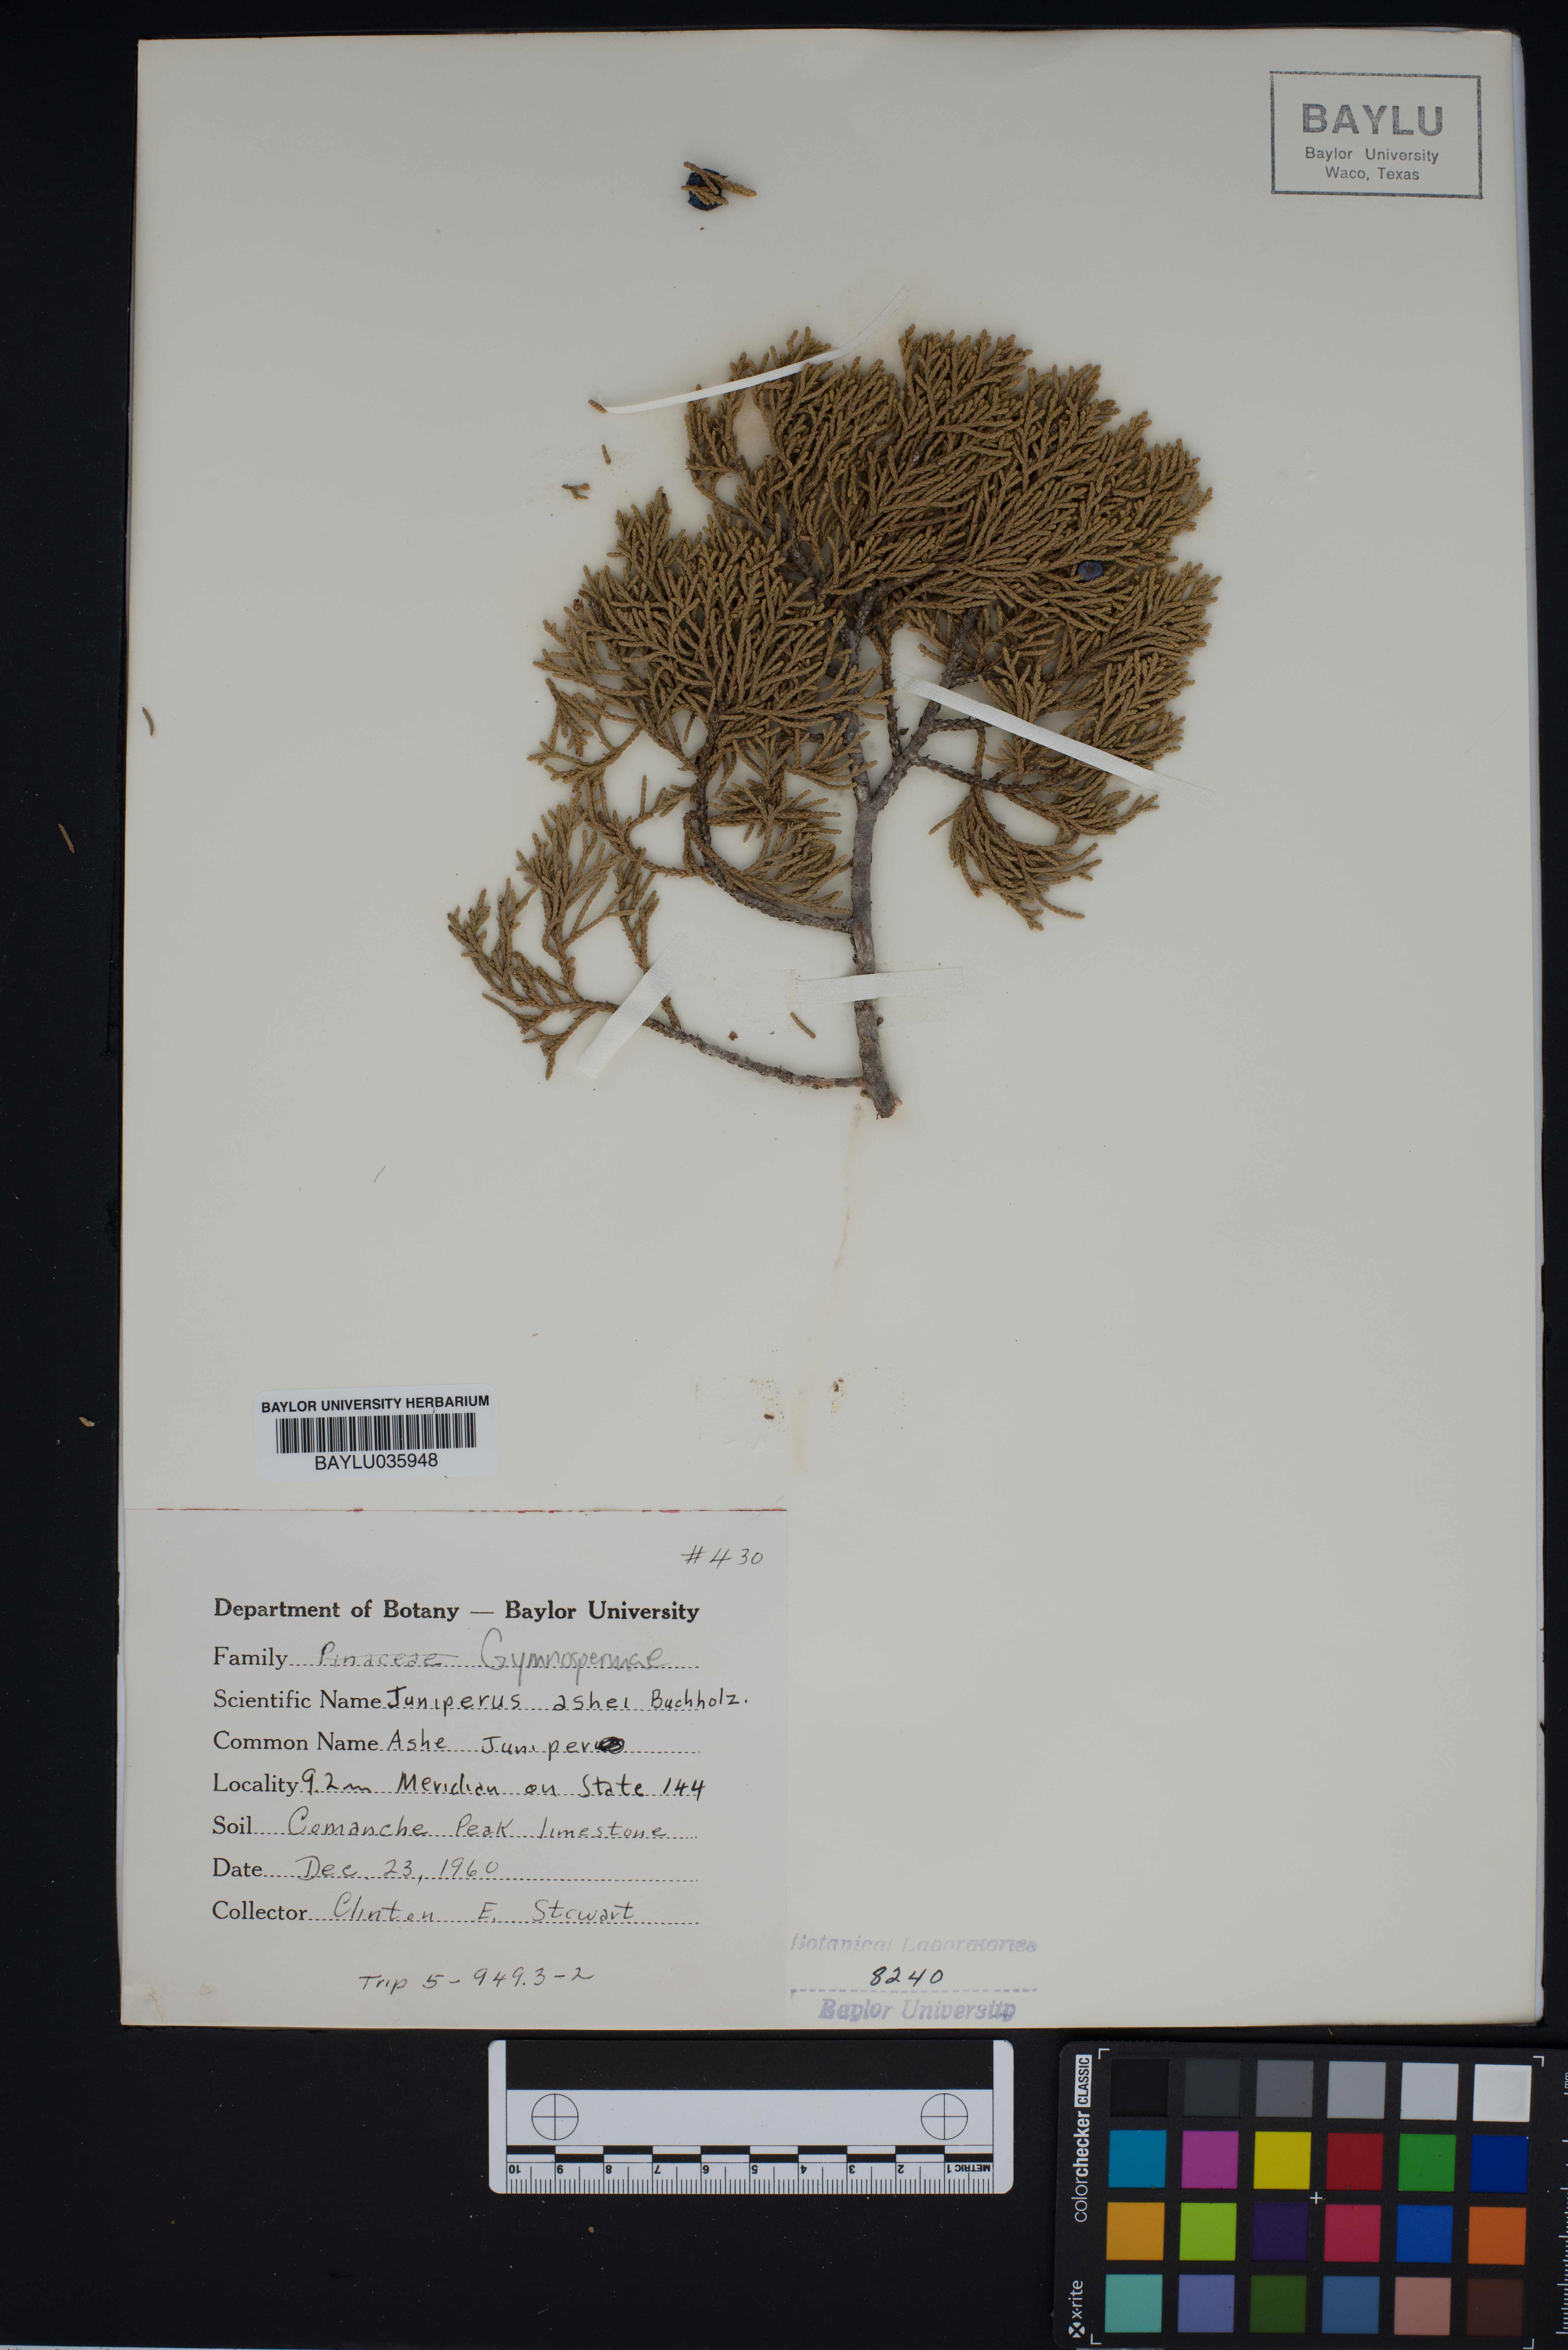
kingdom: Plantae
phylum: Tracheophyta
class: Pinopsida
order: Pinales
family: Cupressaceae
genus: Juniperus
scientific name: Juniperus ashei
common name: Mexican juniper
